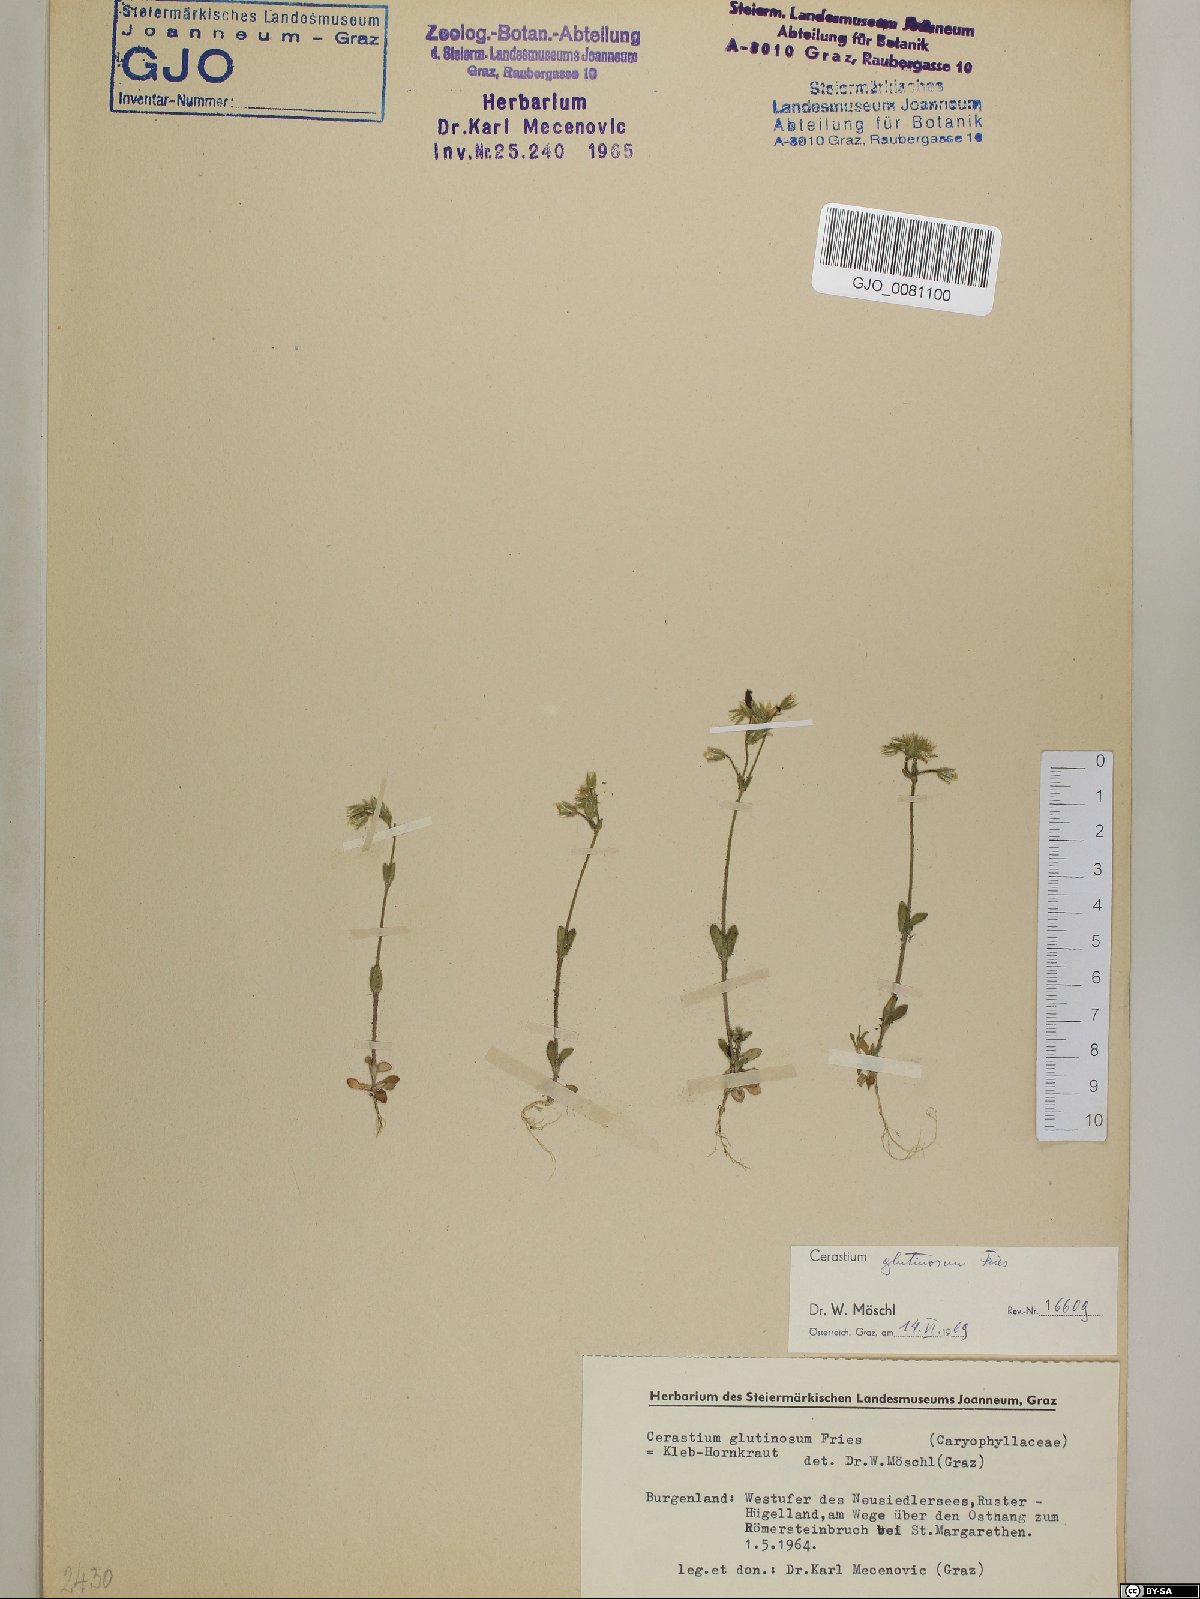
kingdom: Plantae
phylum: Tracheophyta
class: Magnoliopsida
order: Caryophyllales
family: Caryophyllaceae
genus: Cerastium
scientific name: Cerastium glutinosum
